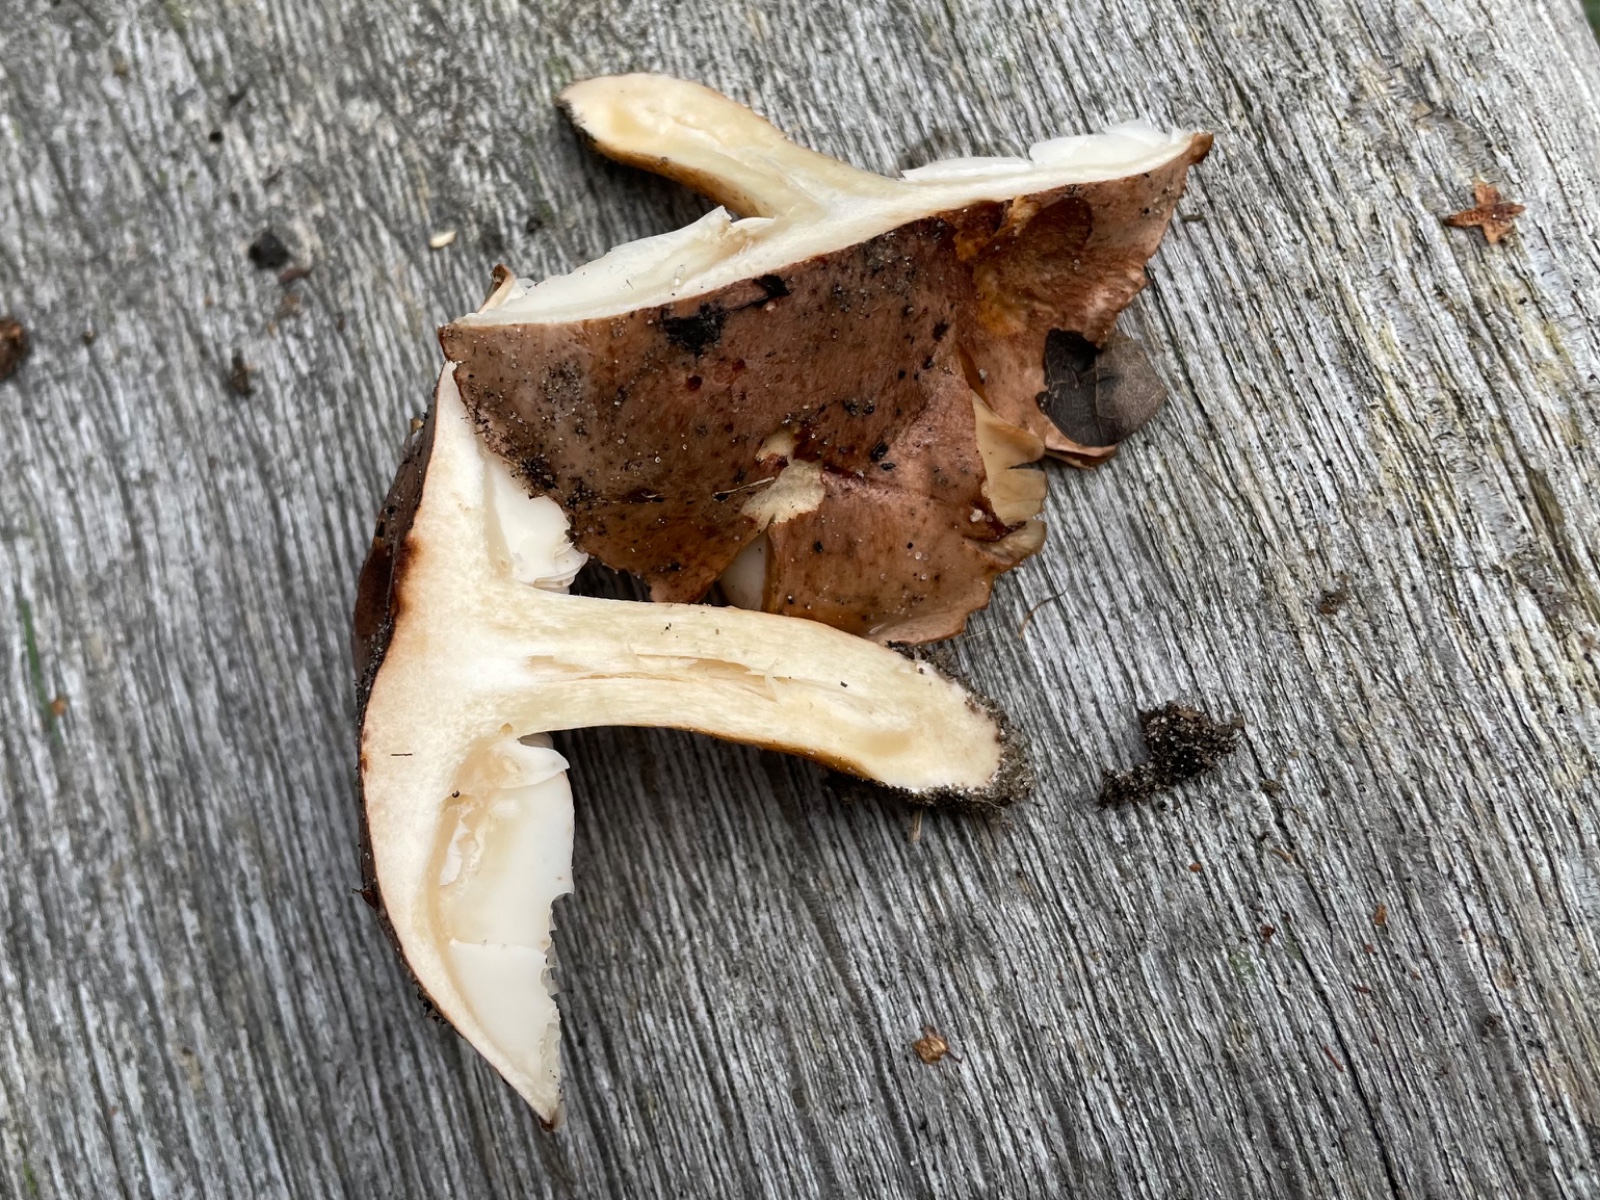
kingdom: Fungi
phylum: Basidiomycota
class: Agaricomycetes
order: Agaricales
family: Tricholomataceae
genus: Tricholoma
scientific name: Tricholoma
